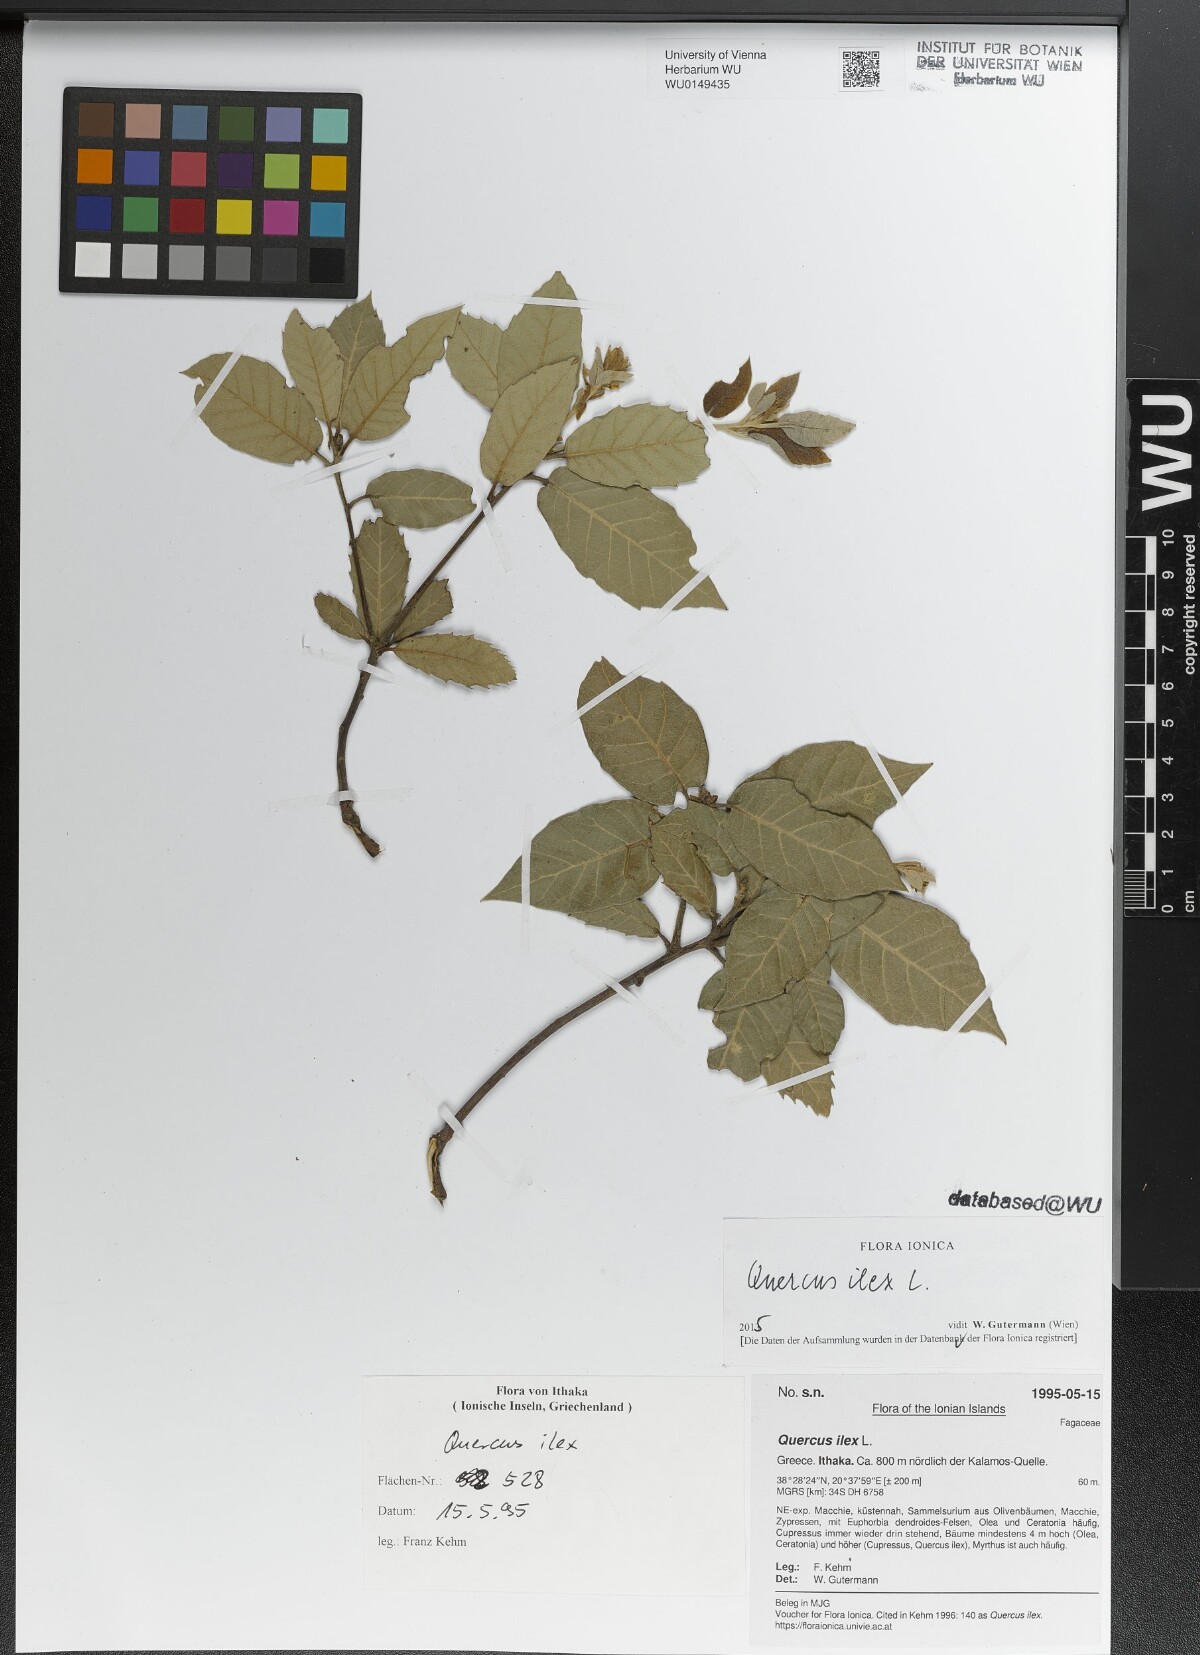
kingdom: Plantae
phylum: Tracheophyta
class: Magnoliopsida
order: Fagales
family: Fagaceae
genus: Quercus
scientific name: Quercus ilex
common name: Evergreen oak
